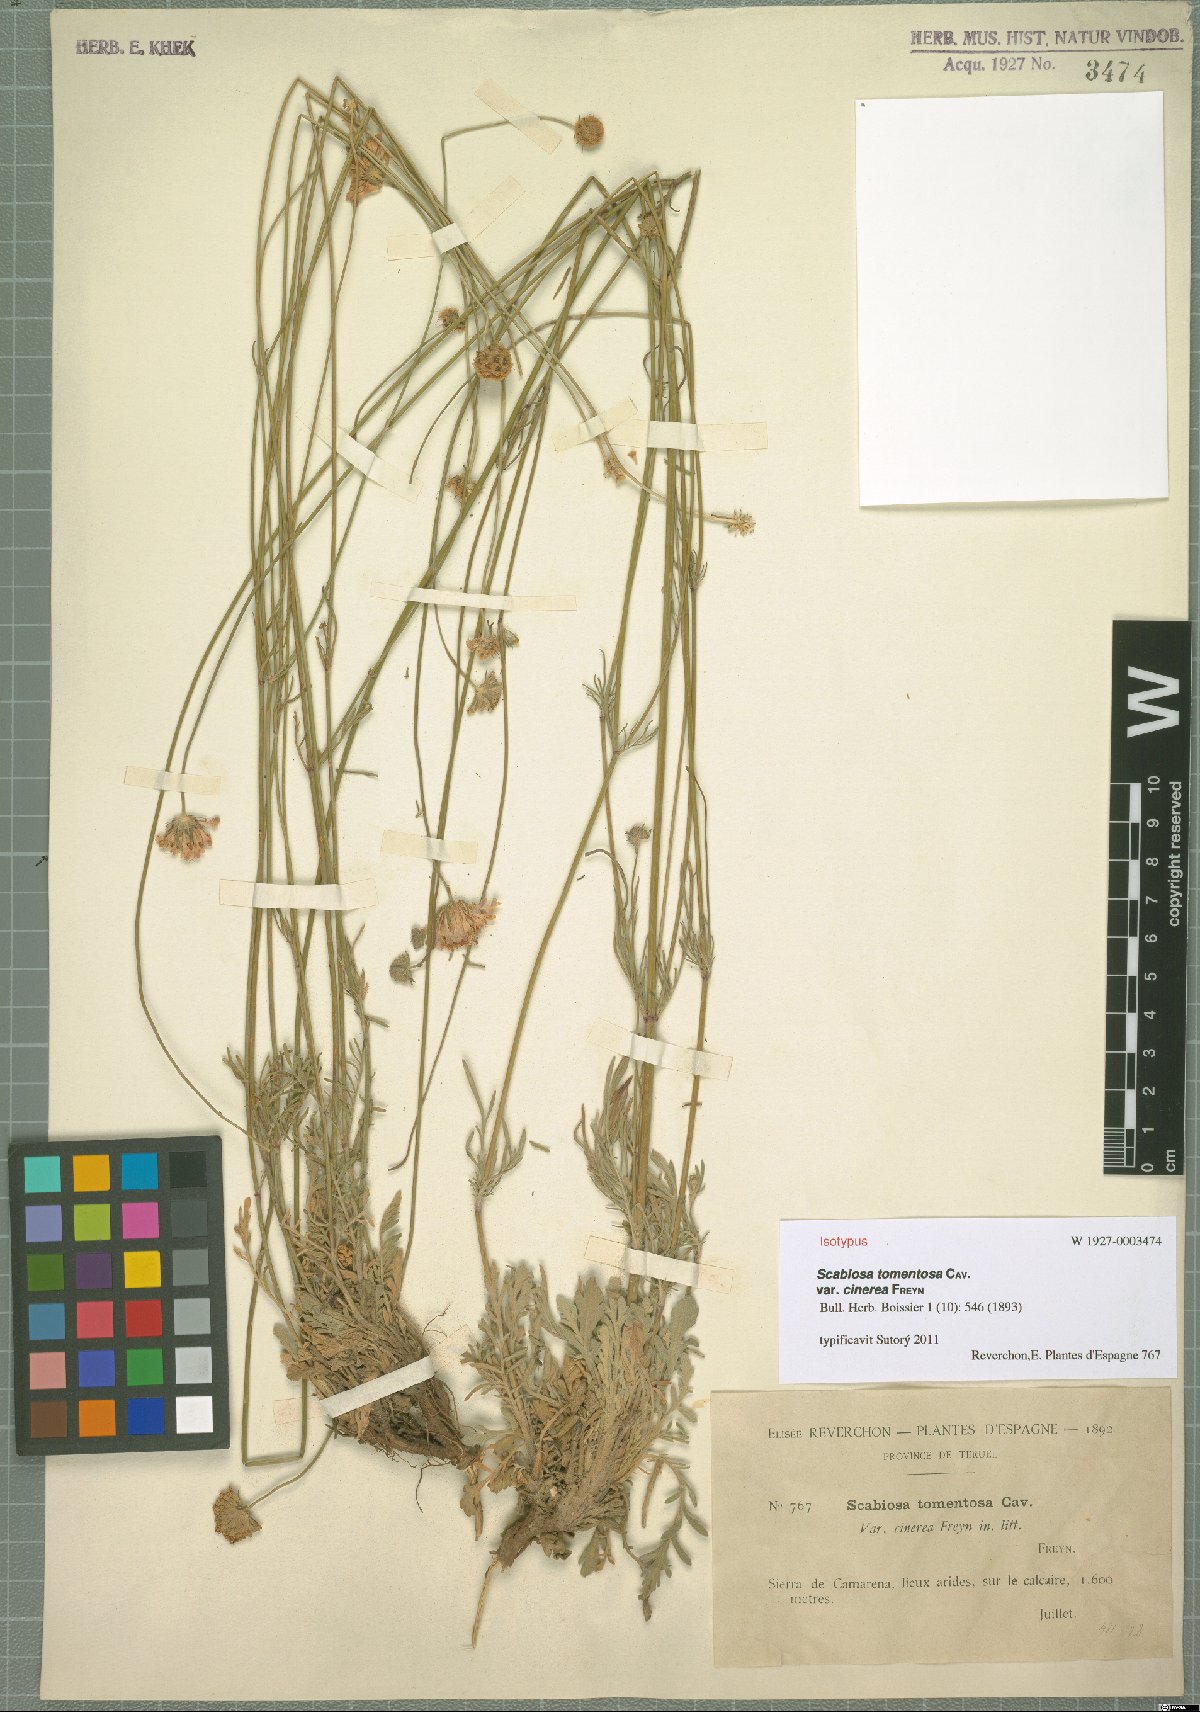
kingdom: Plantae
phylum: Tracheophyta
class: Magnoliopsida
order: Dipsacales
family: Caprifoliaceae
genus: Scabiosa
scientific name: Scabiosa turolensis
